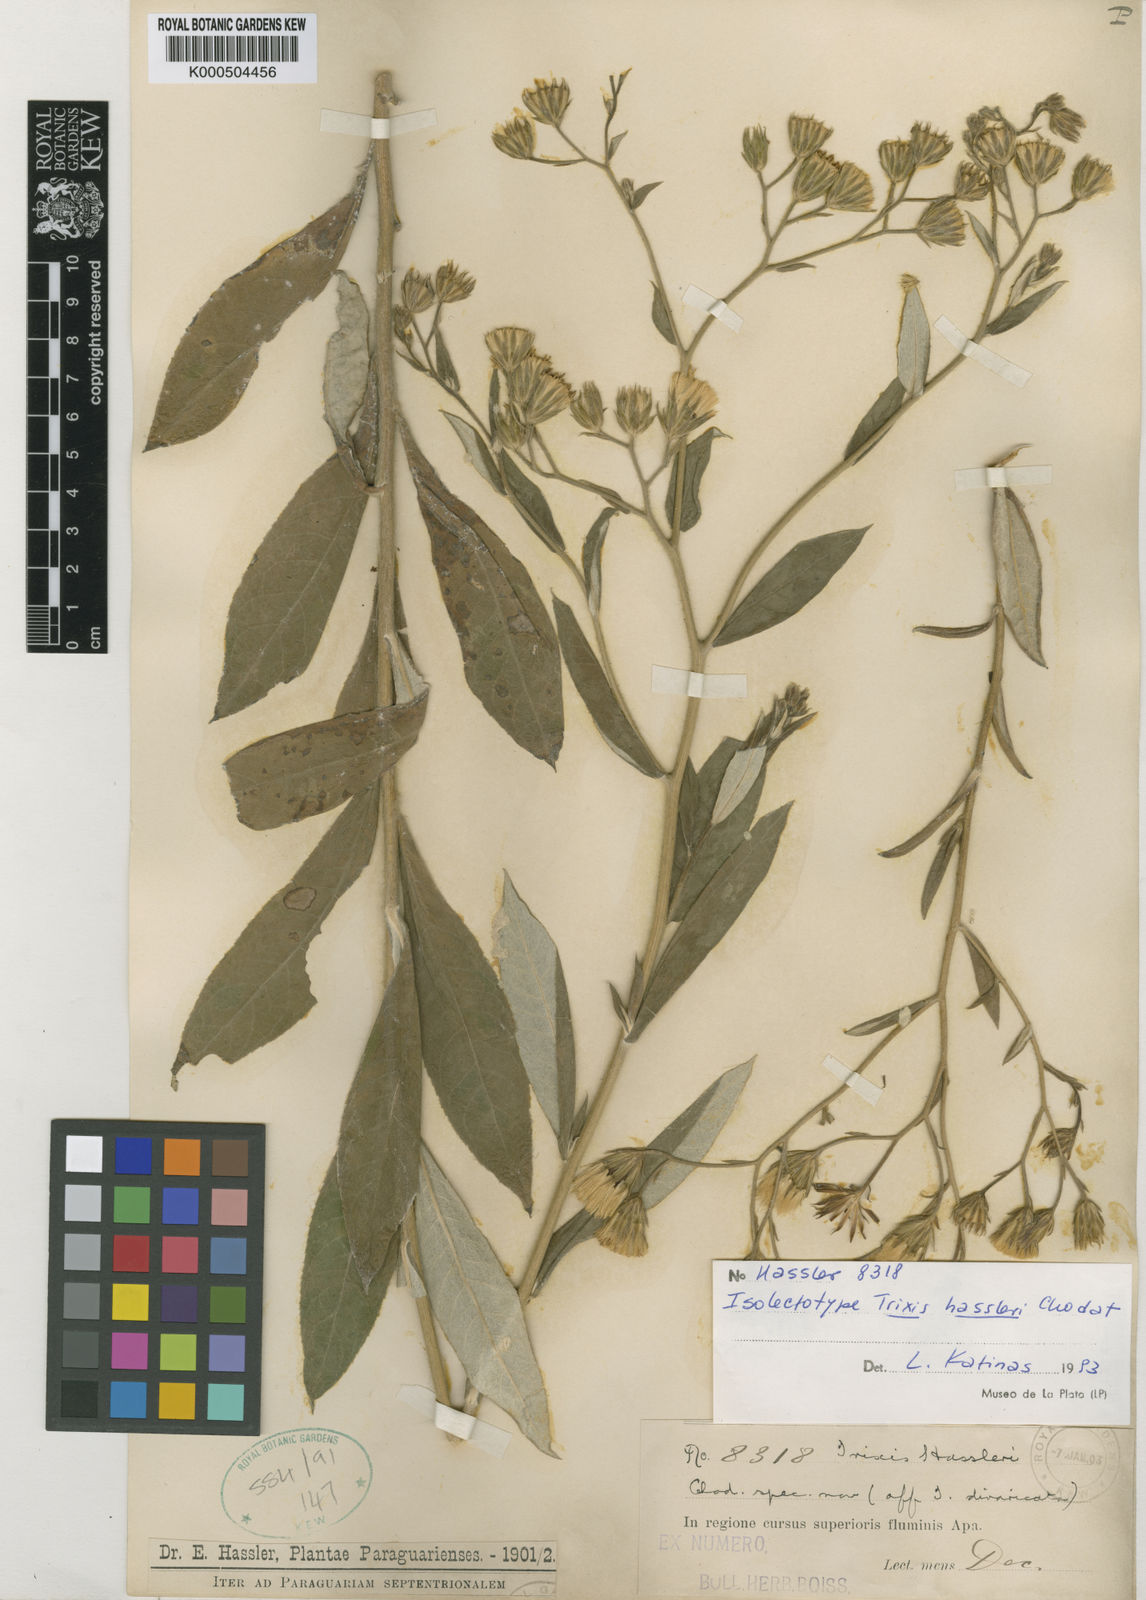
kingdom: Plantae
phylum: Tracheophyta
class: Magnoliopsida
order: Asterales
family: Asteraceae
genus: Trixis
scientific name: Trixis hassleri
